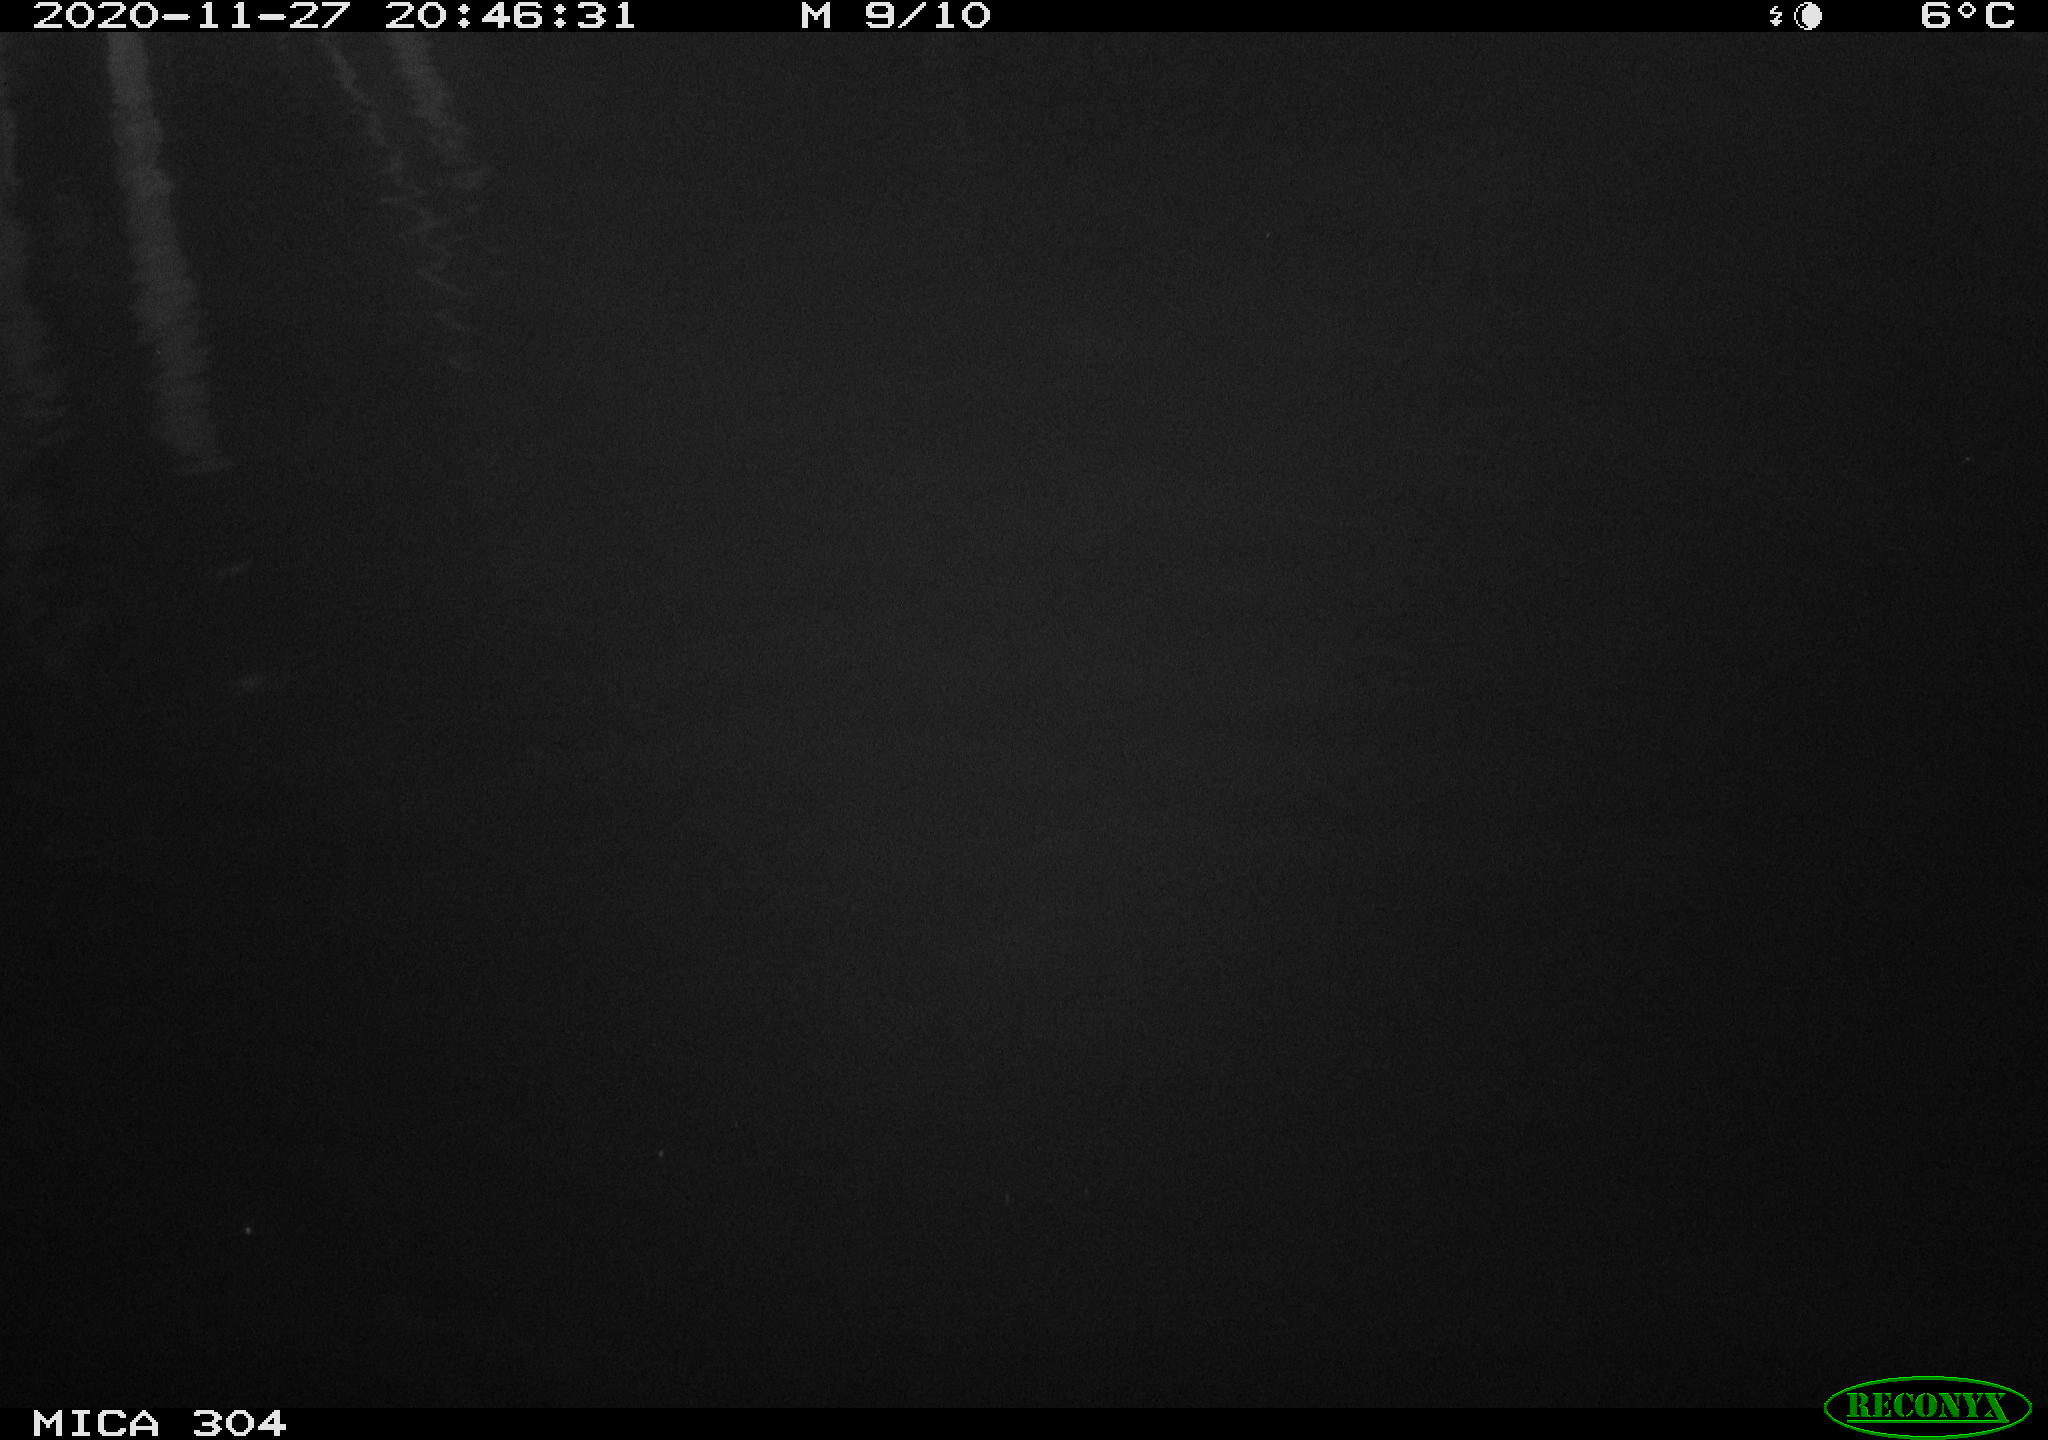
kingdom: Animalia
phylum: Chordata
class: Mammalia
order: Rodentia
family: Muridae
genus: Rattus
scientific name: Rattus norvegicus
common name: Brown rat
